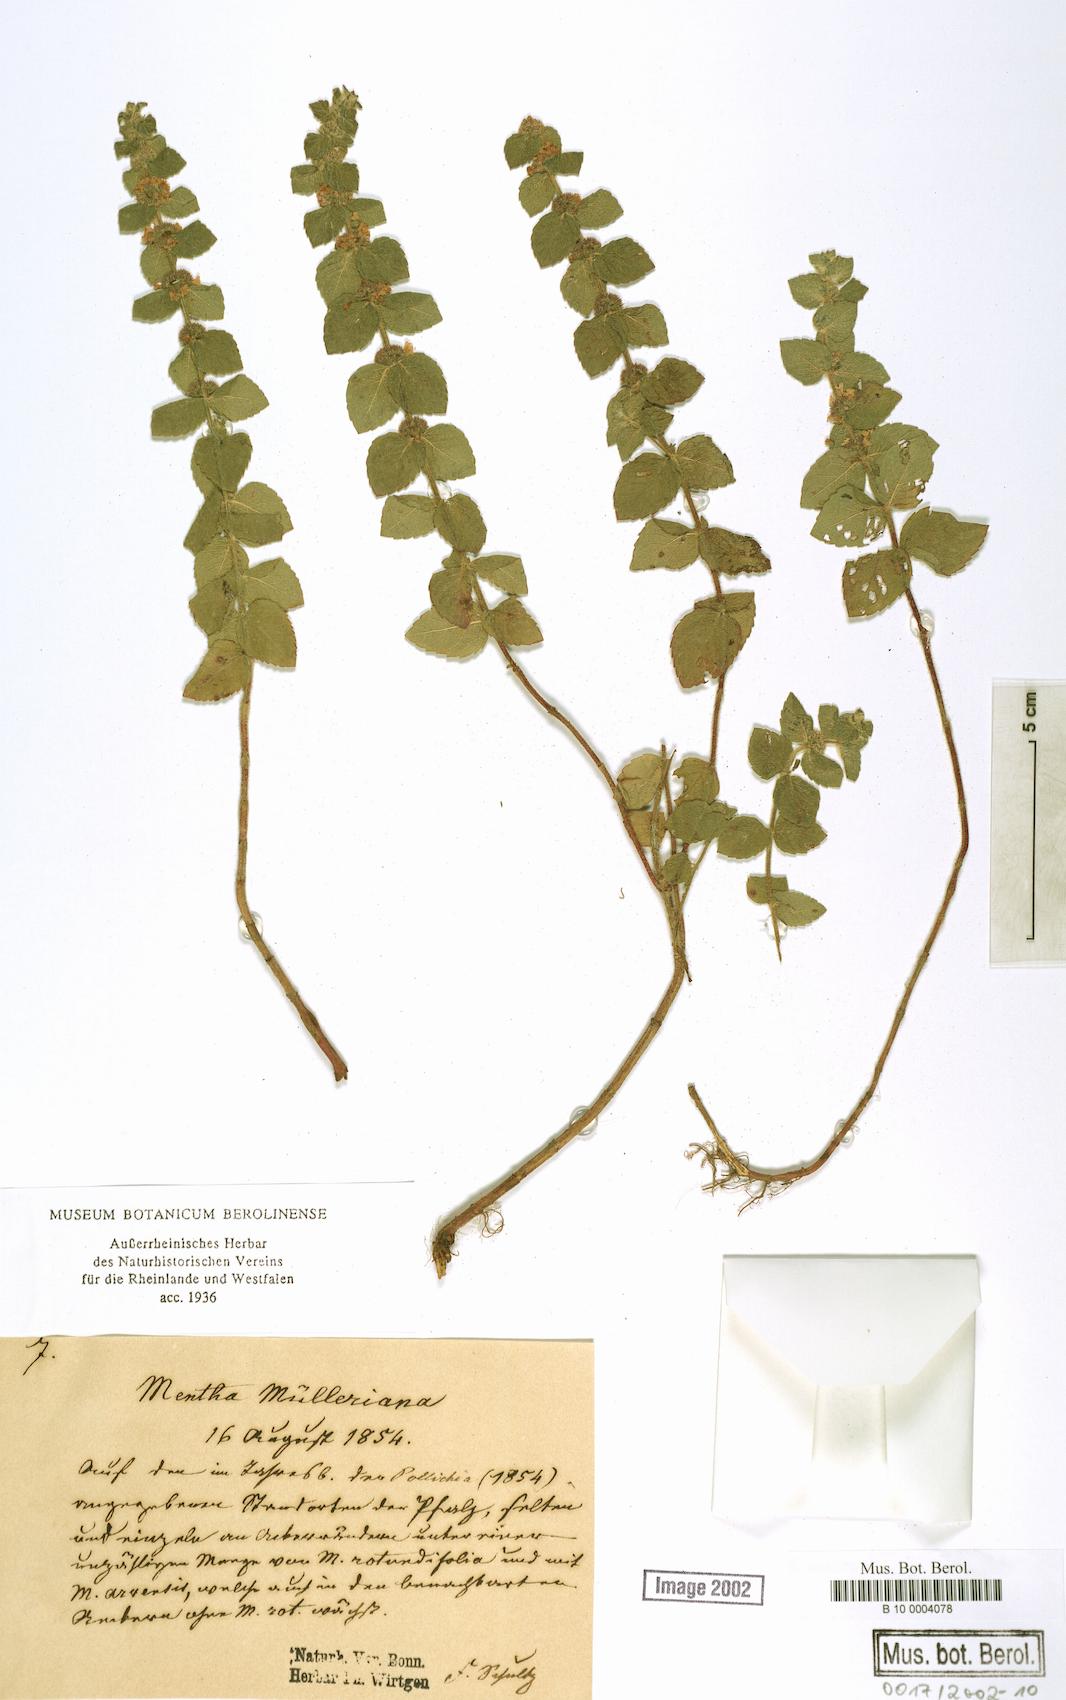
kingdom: Plantae
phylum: Tracheophyta
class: Magnoliopsida
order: Lamiales
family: Lamiaceae
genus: Mentha
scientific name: Mentha carinthiaca
